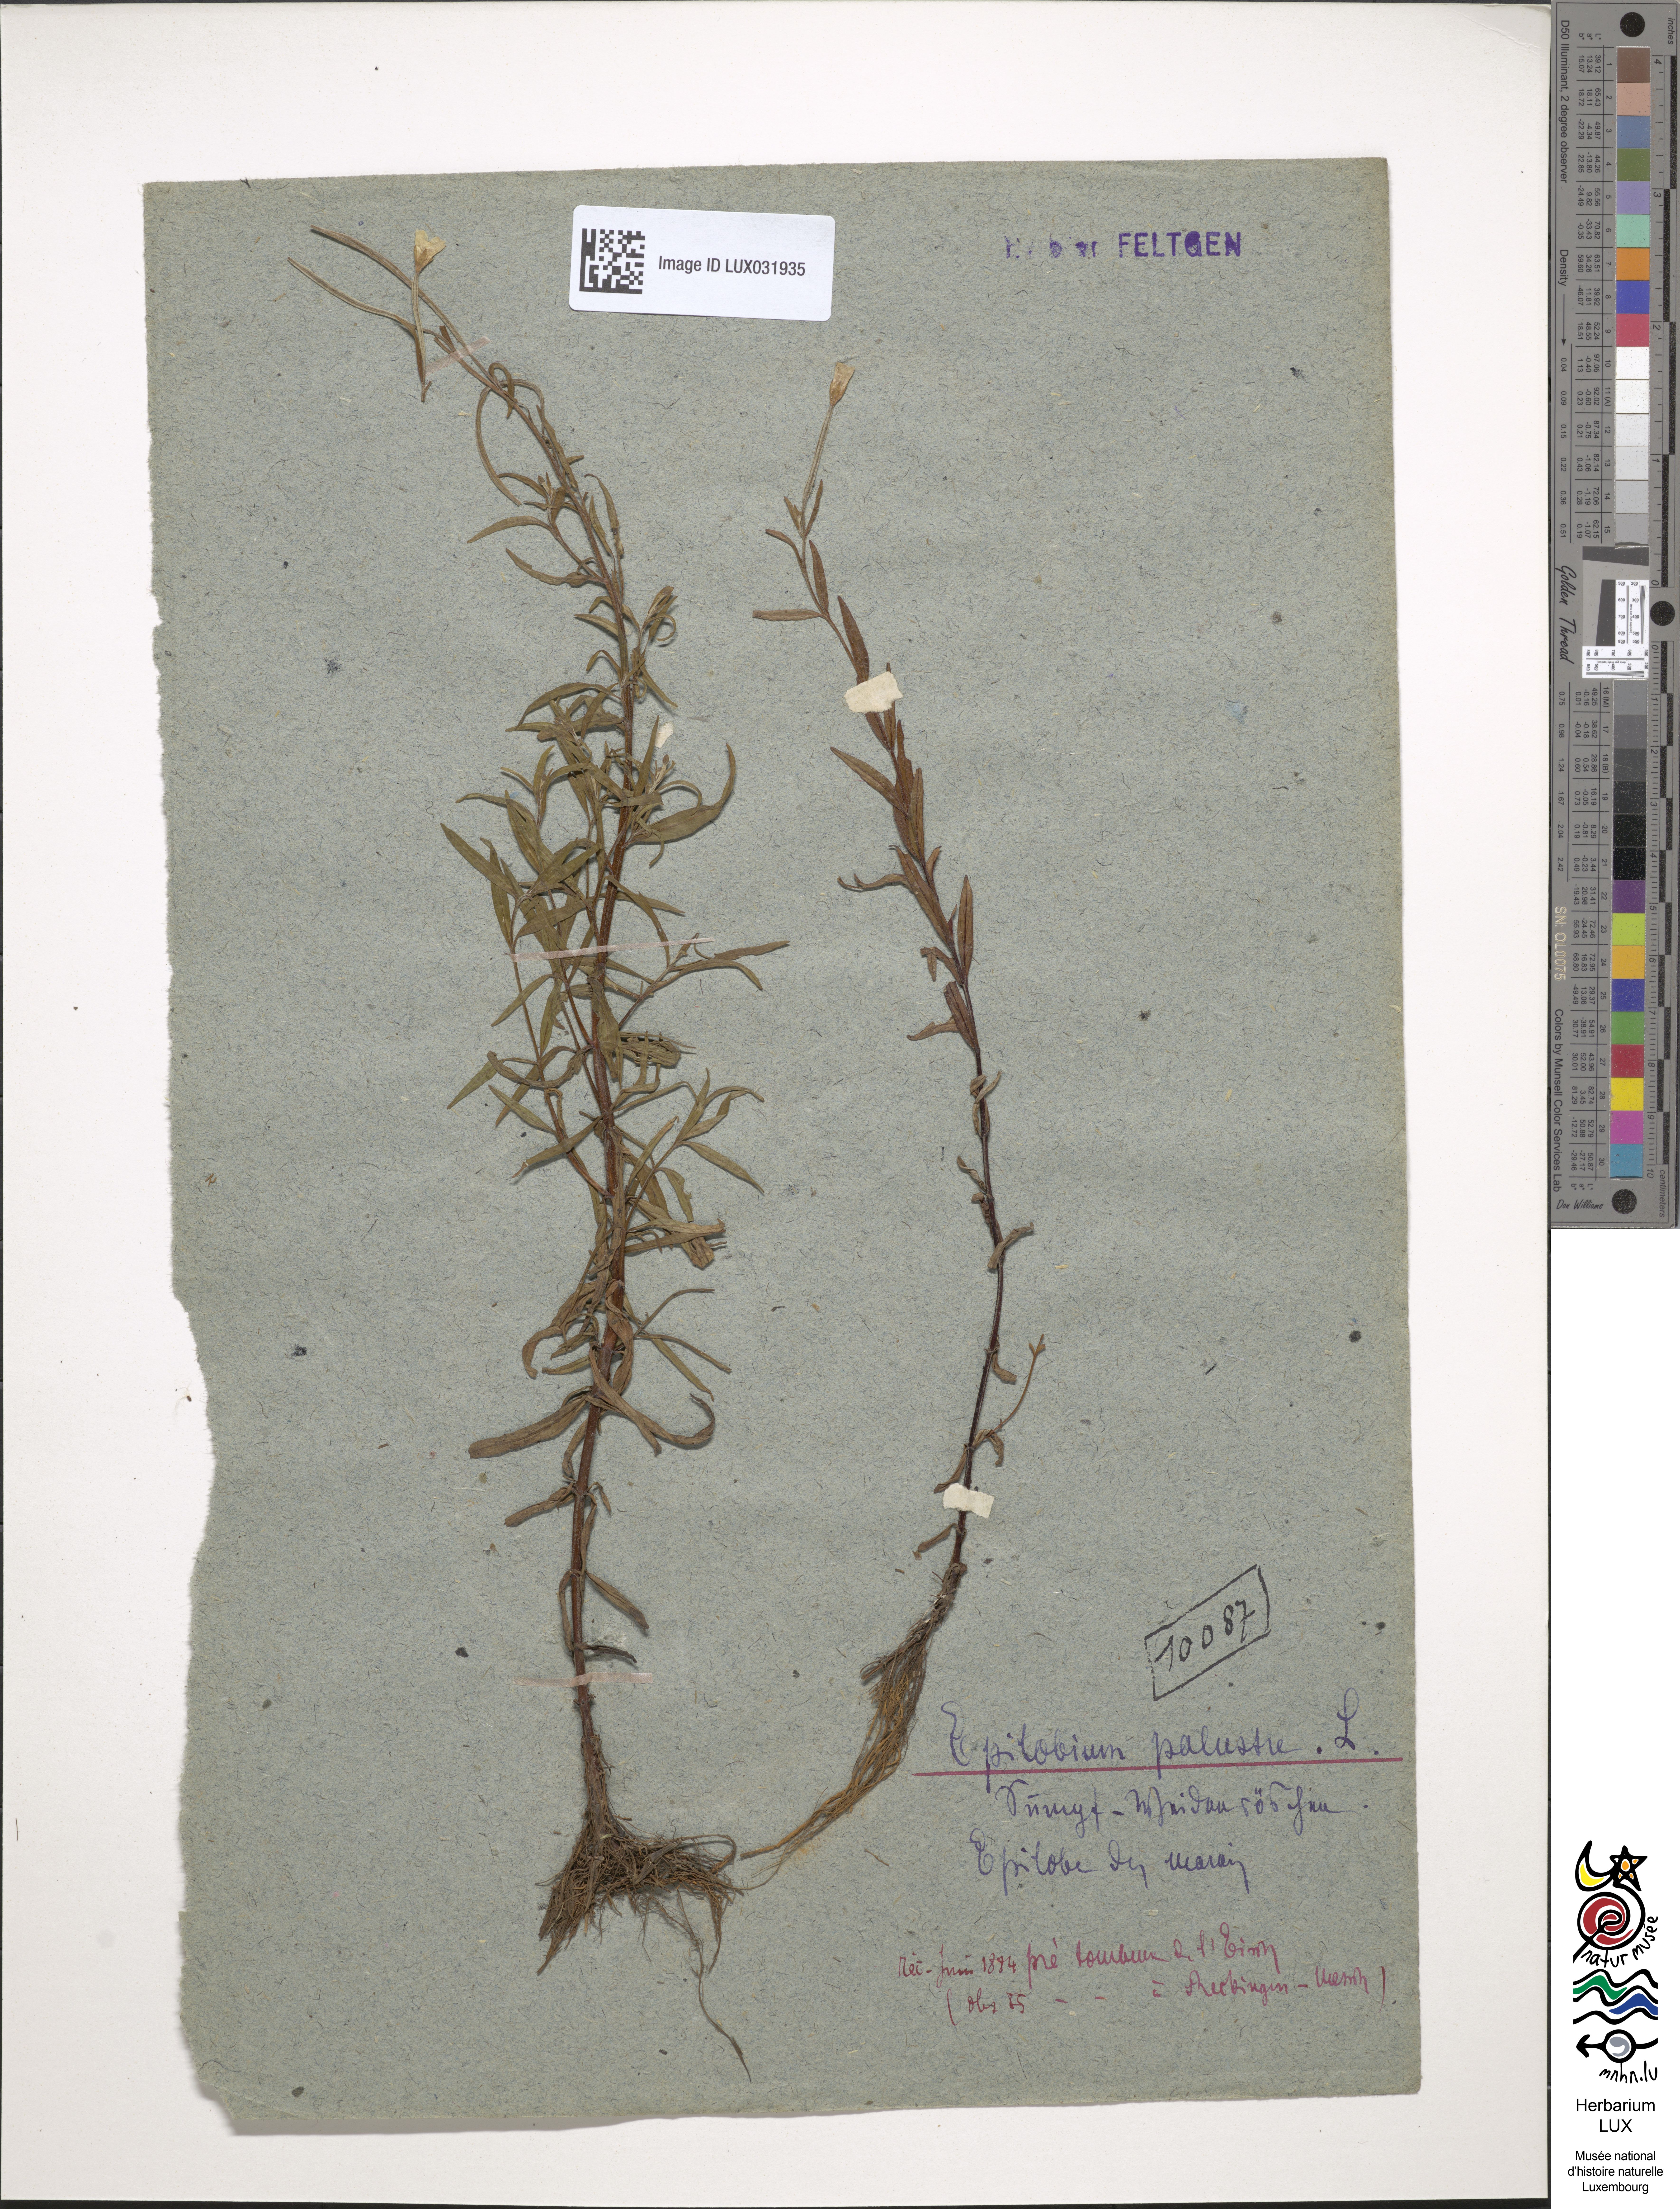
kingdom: Plantae
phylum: Tracheophyta
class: Magnoliopsida
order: Myrtales
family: Onagraceae
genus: Epilobium
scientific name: Epilobium palustre
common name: Marsh willowherb
